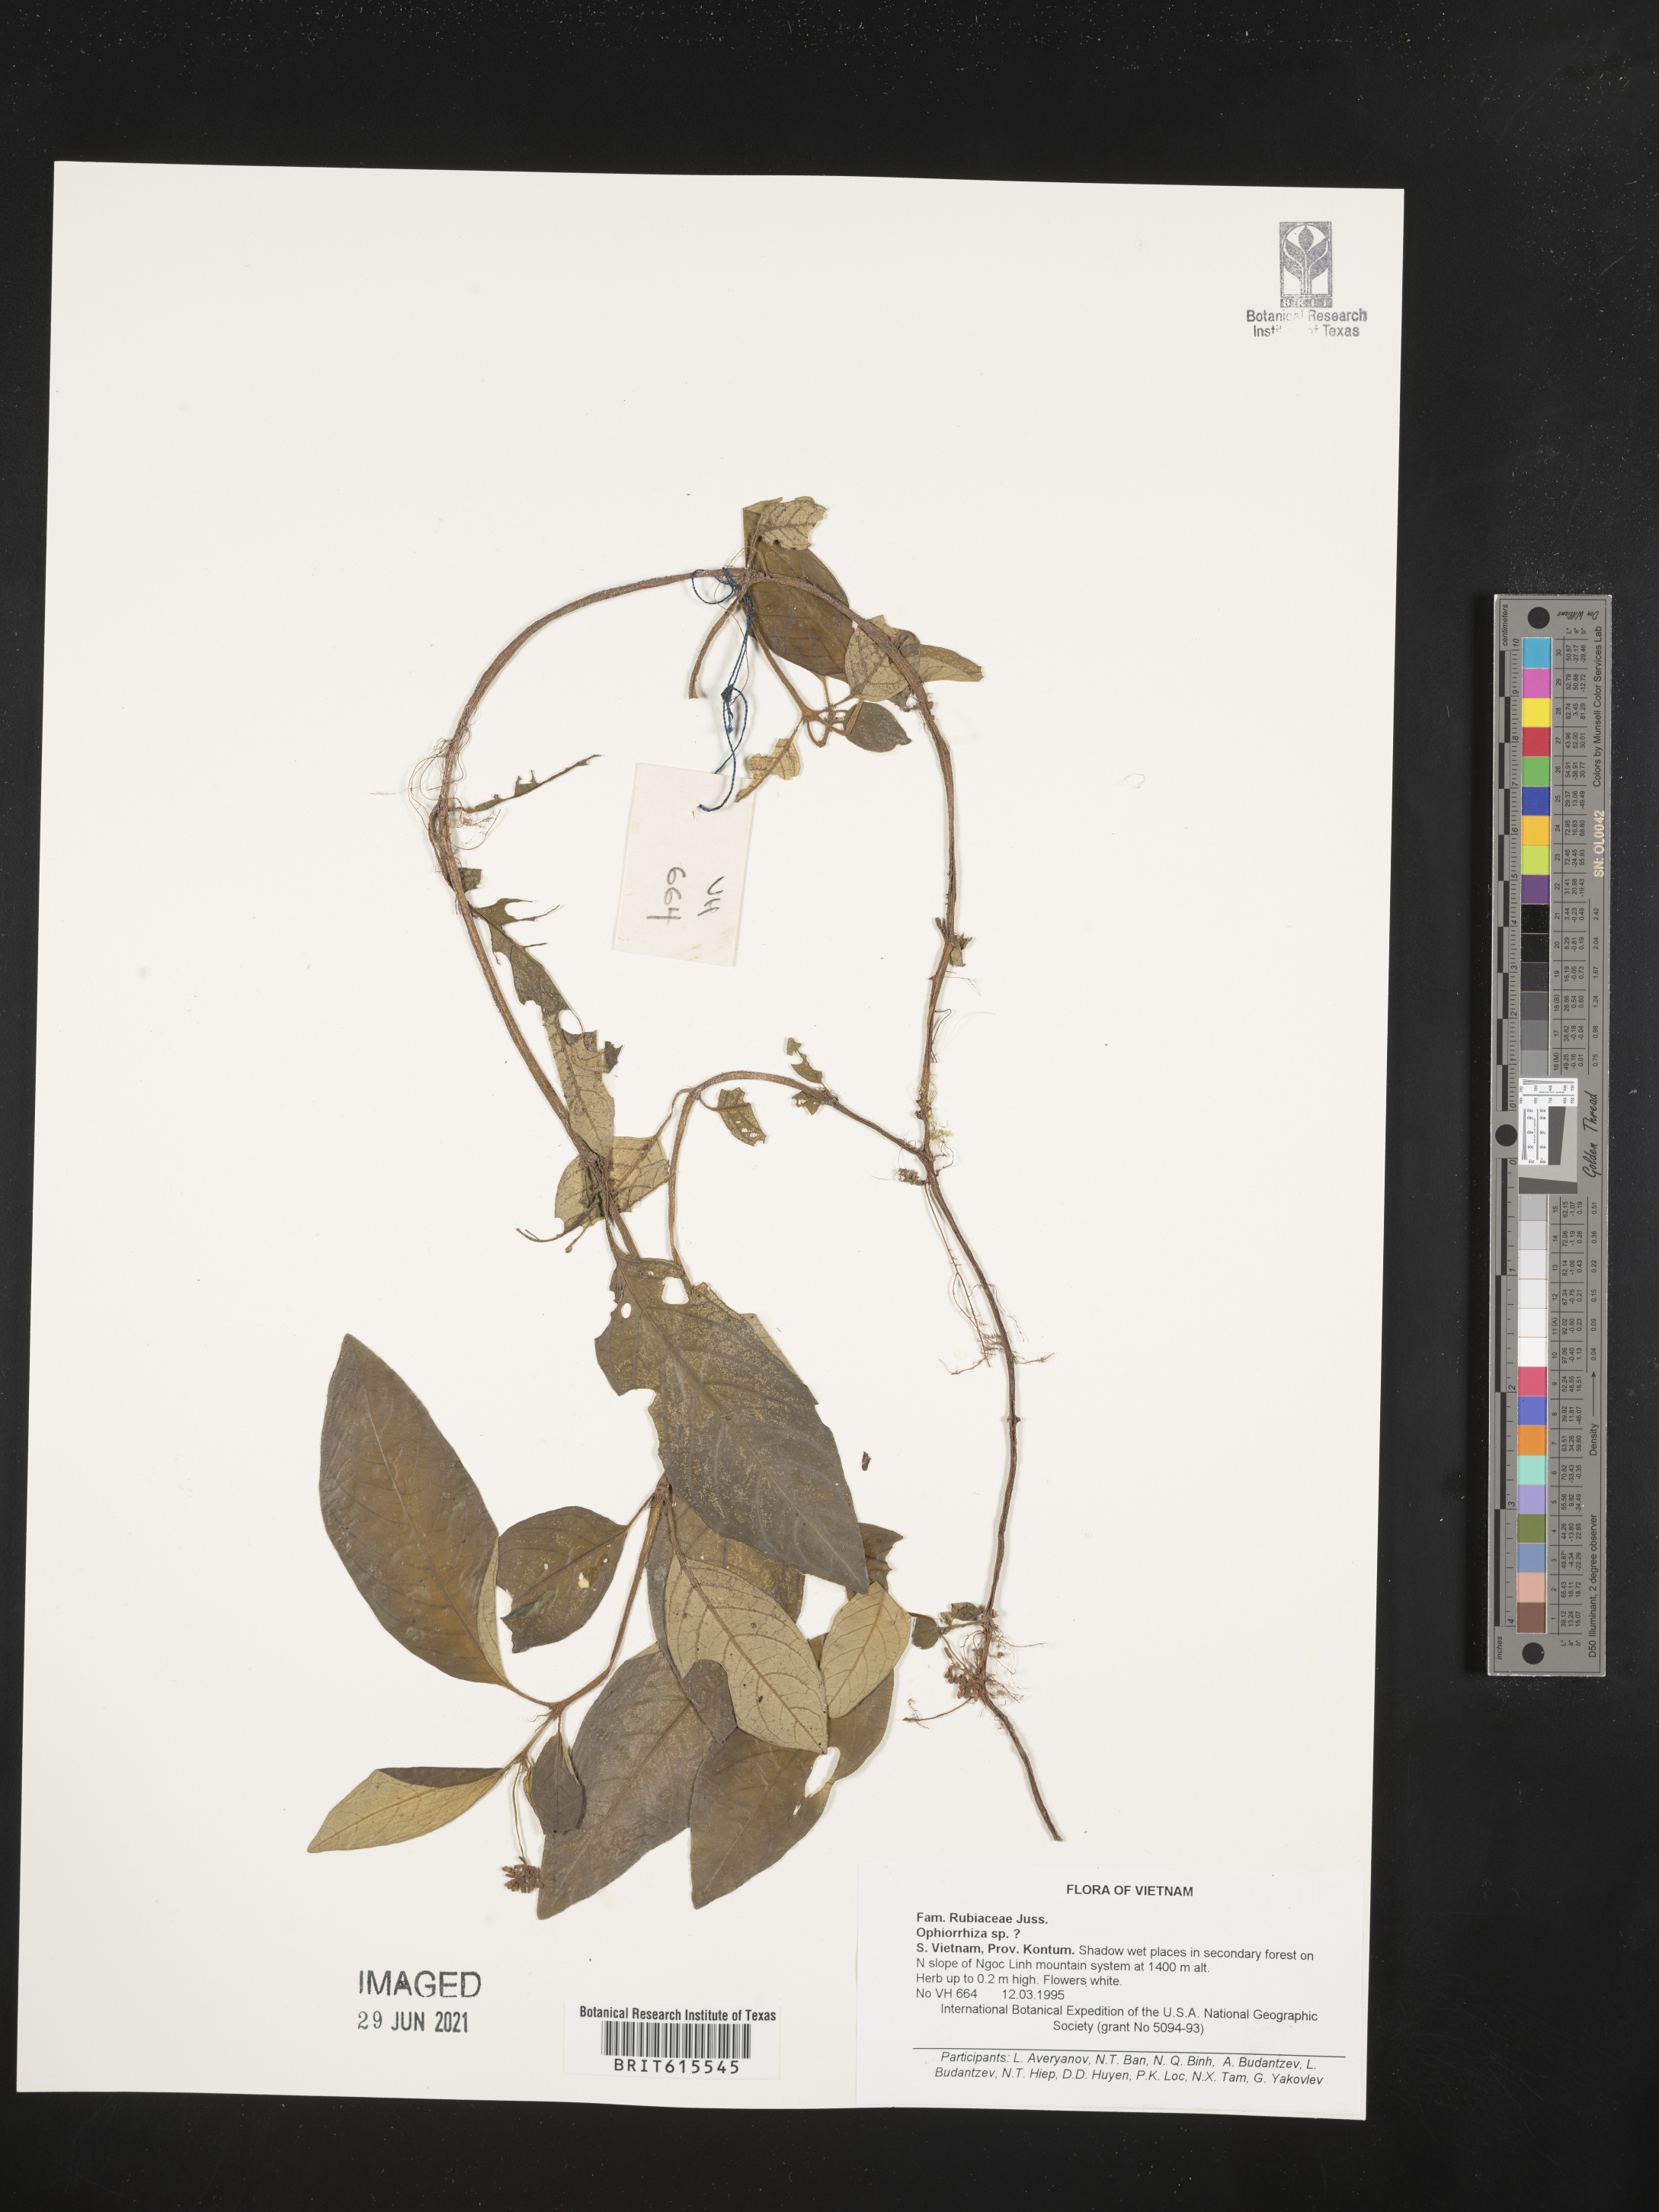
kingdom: Plantae
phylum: Tracheophyta
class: Magnoliopsida
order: Gentianales
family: Rubiaceae
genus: Ophiorrhiza
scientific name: Ophiorrhiza
